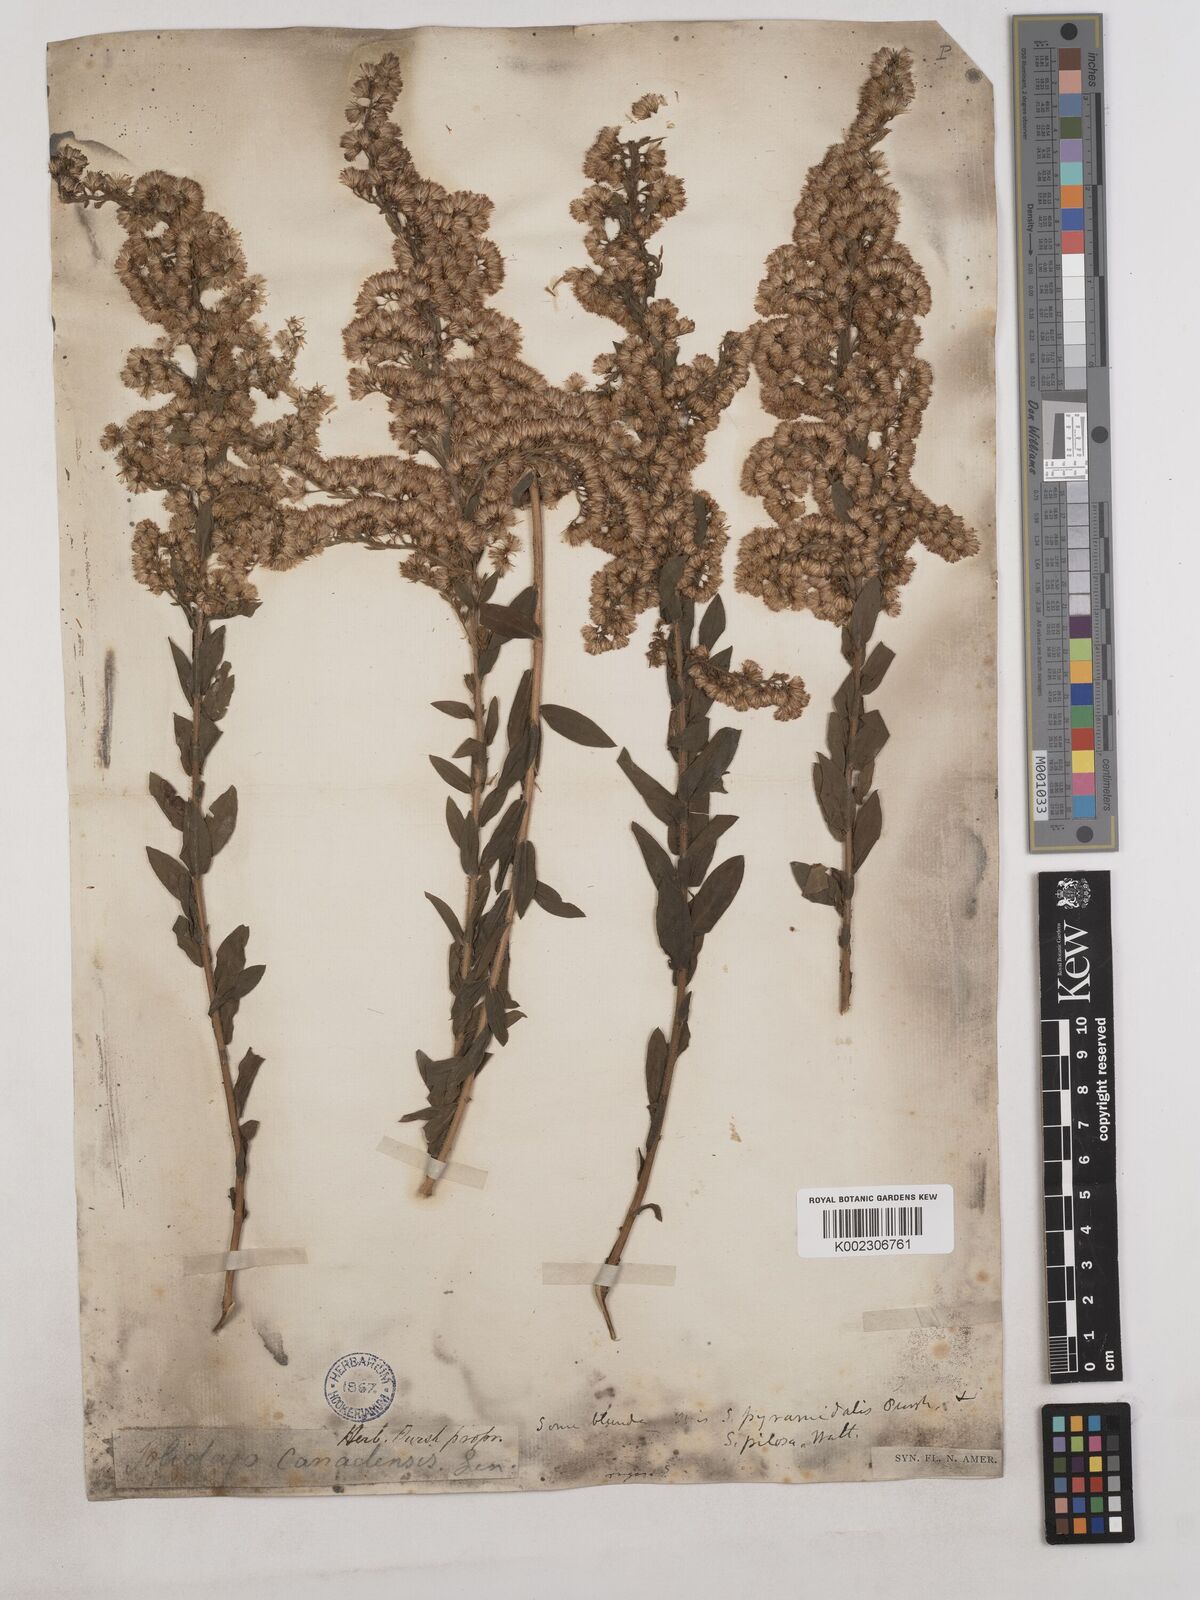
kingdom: Plantae
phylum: Tracheophyta
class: Magnoliopsida
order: Asterales
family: Asteraceae
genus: Solidago
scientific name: Solidago fistulosa
